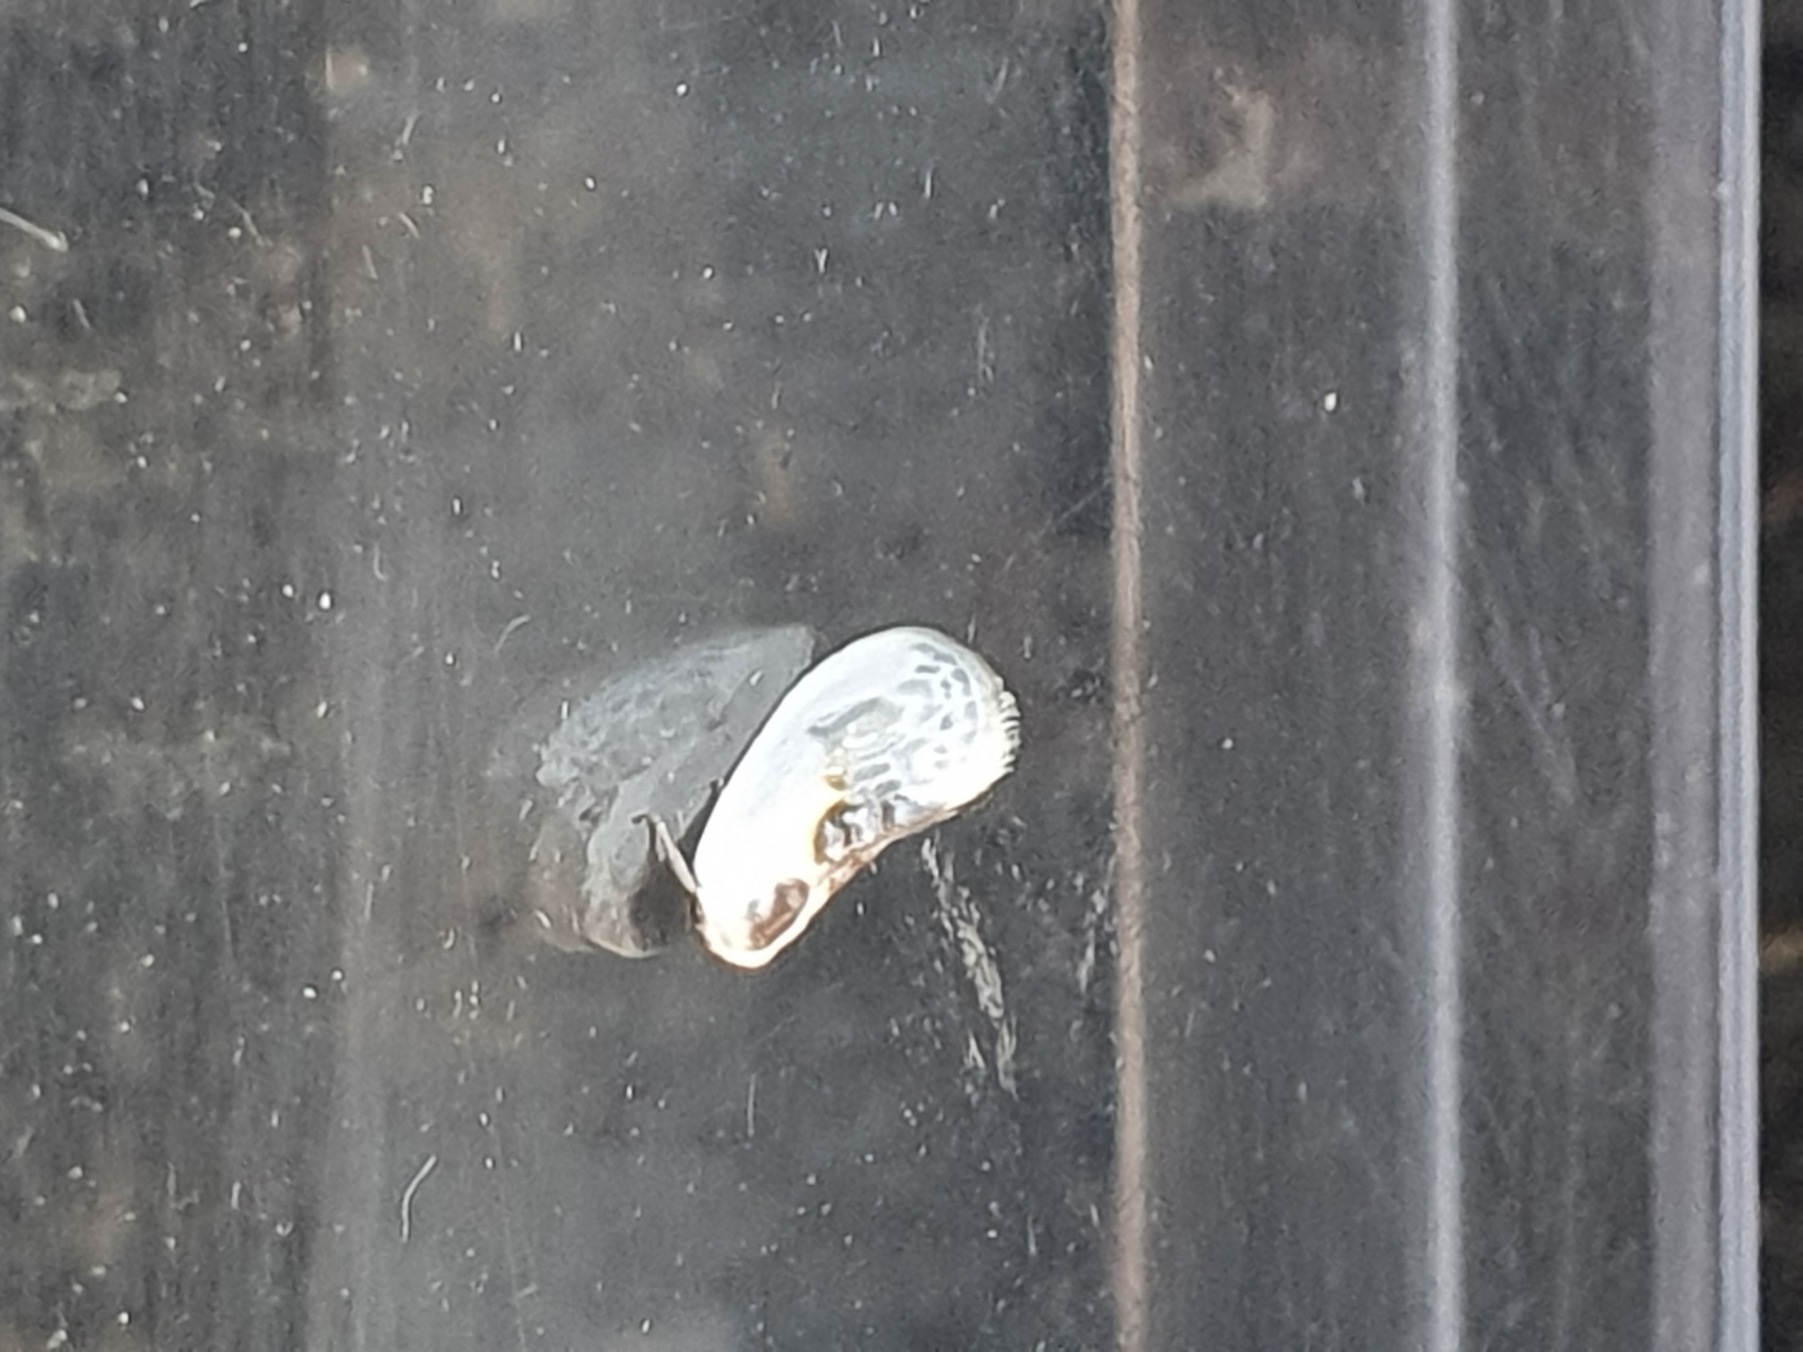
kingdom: Animalia
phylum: Arthropoda
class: Insecta
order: Lepidoptera
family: Drepanidae
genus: Cilix
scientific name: Cilix glaucata
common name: Silkevinge
